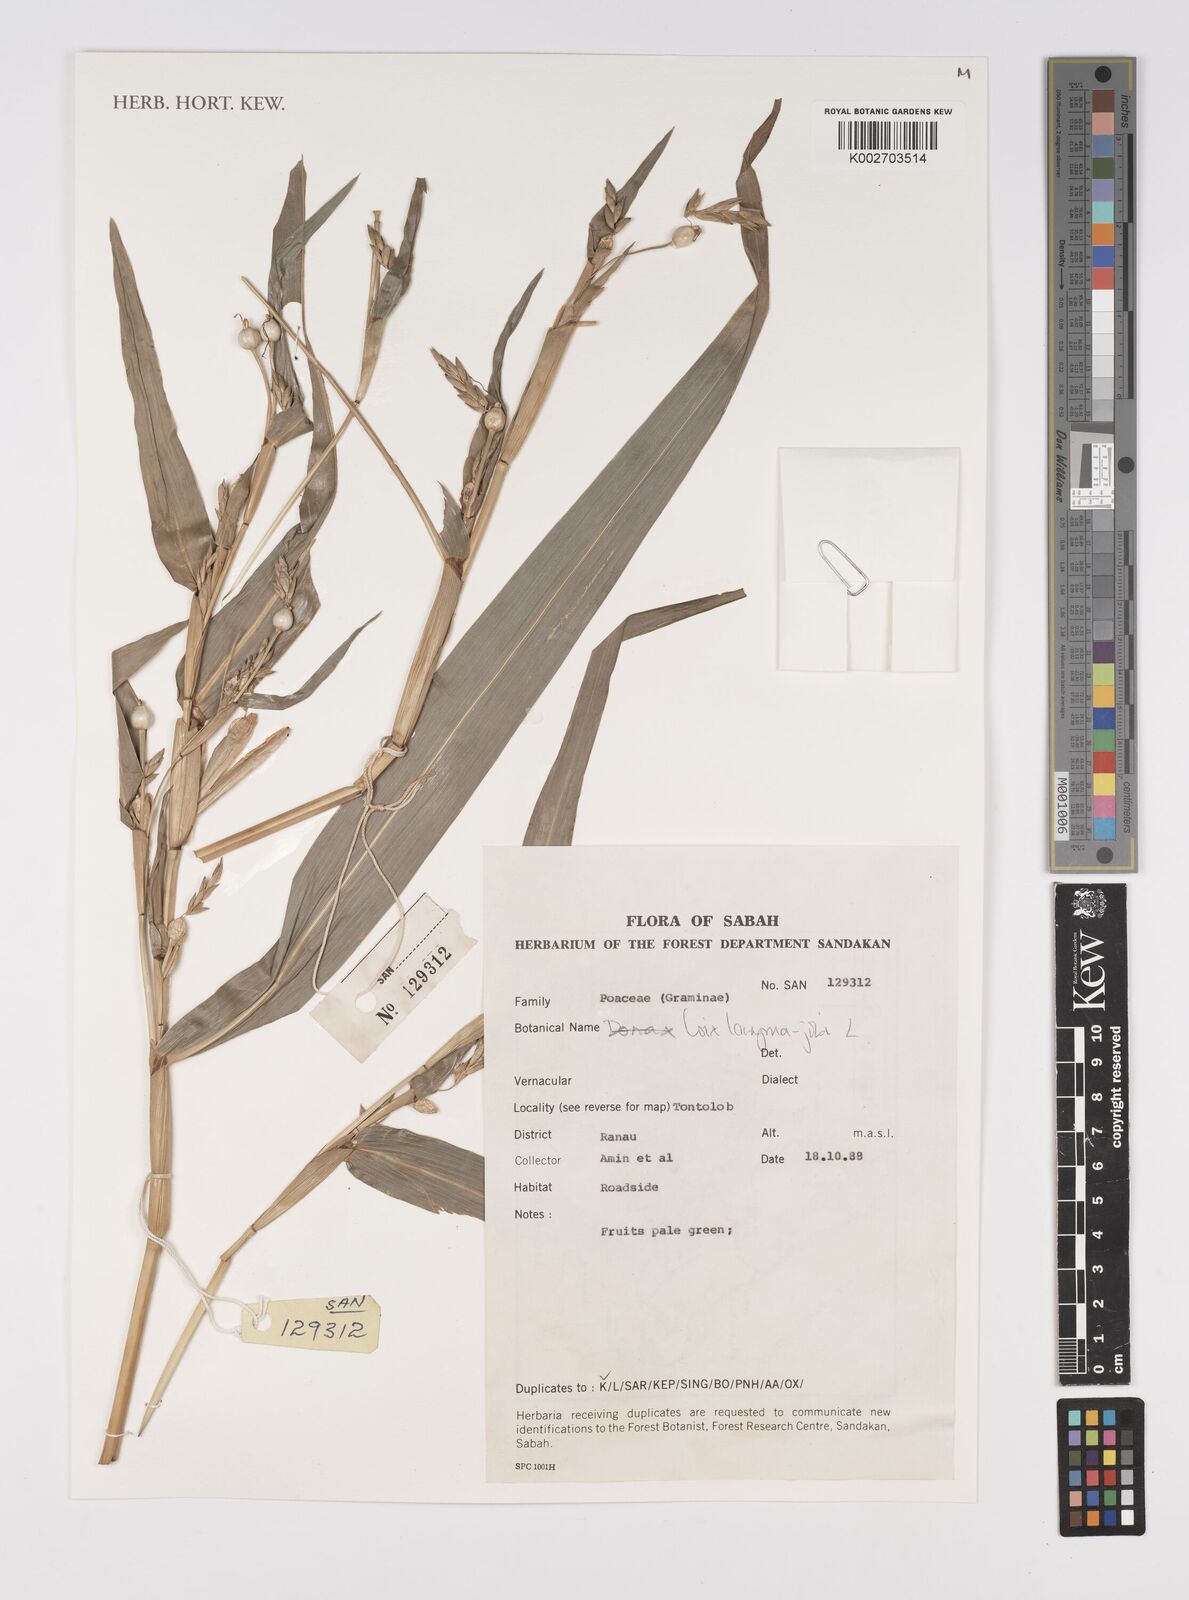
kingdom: Plantae
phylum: Tracheophyta
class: Liliopsida
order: Poales
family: Poaceae
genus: Coix
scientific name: Coix lacryma-jobi
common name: Job's tears
